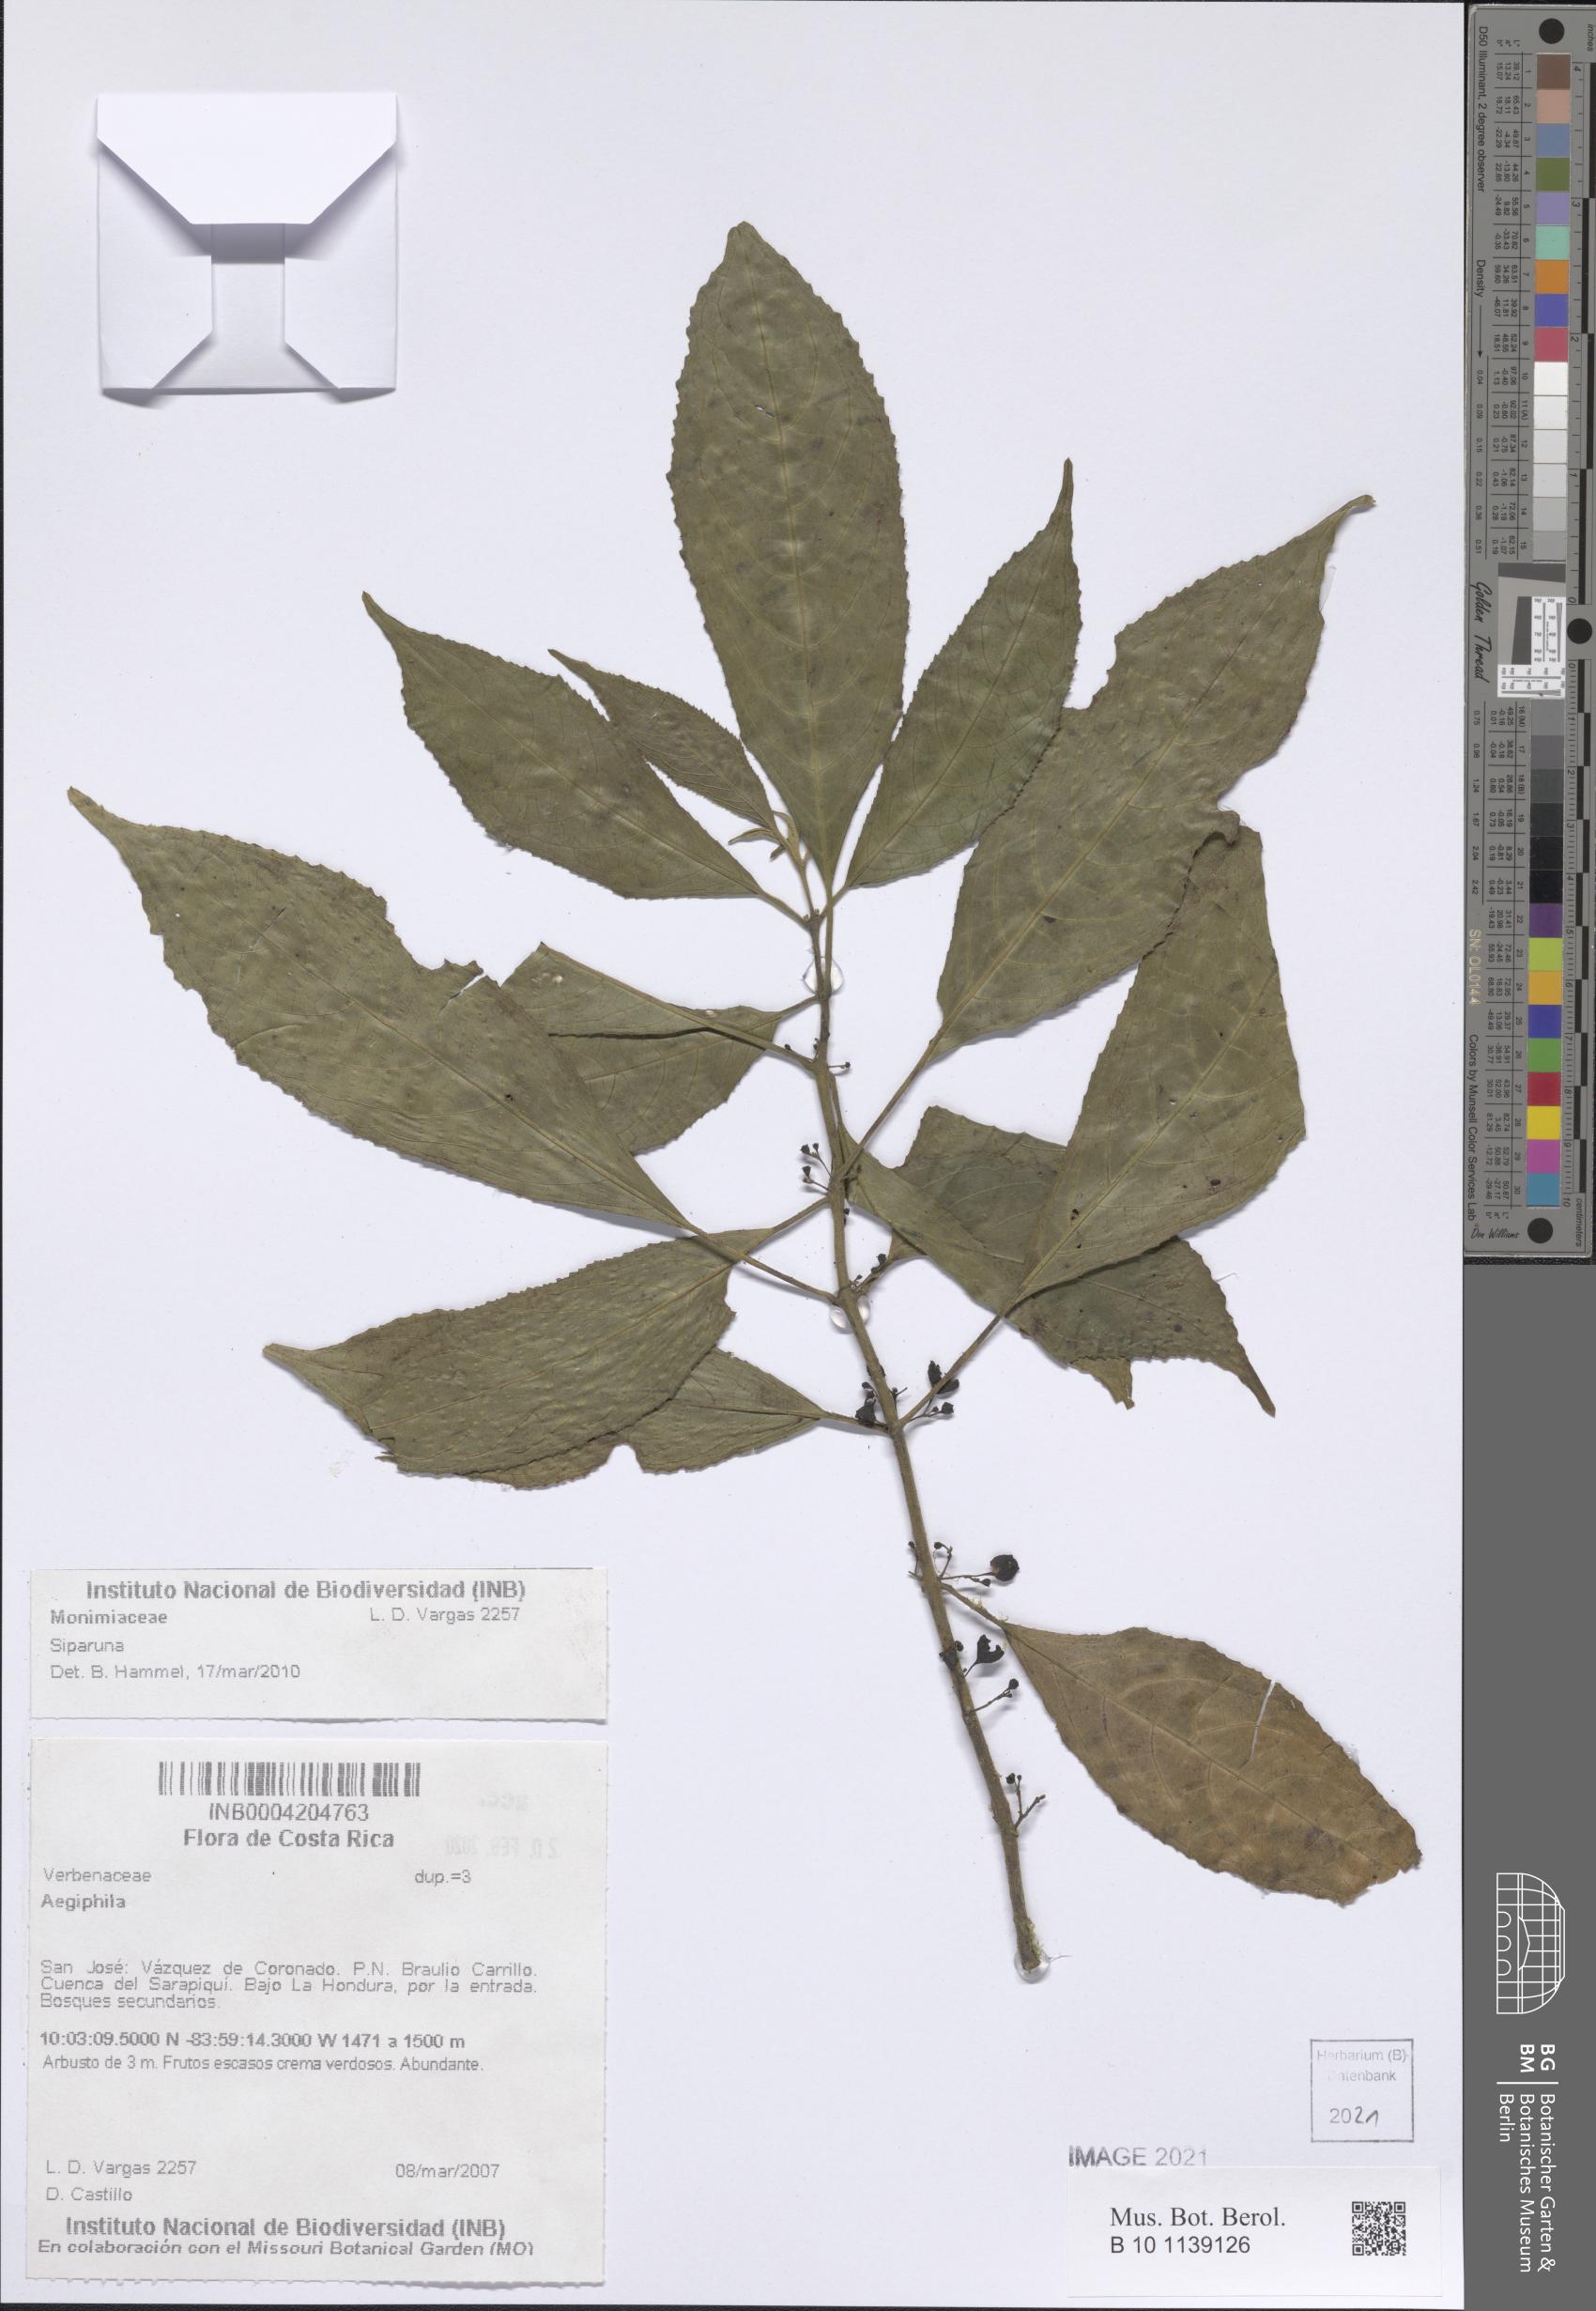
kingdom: Plantae
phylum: Tracheophyta
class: Magnoliopsida
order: Laurales
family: Siparunaceae
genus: Siparuna
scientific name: Siparuna
